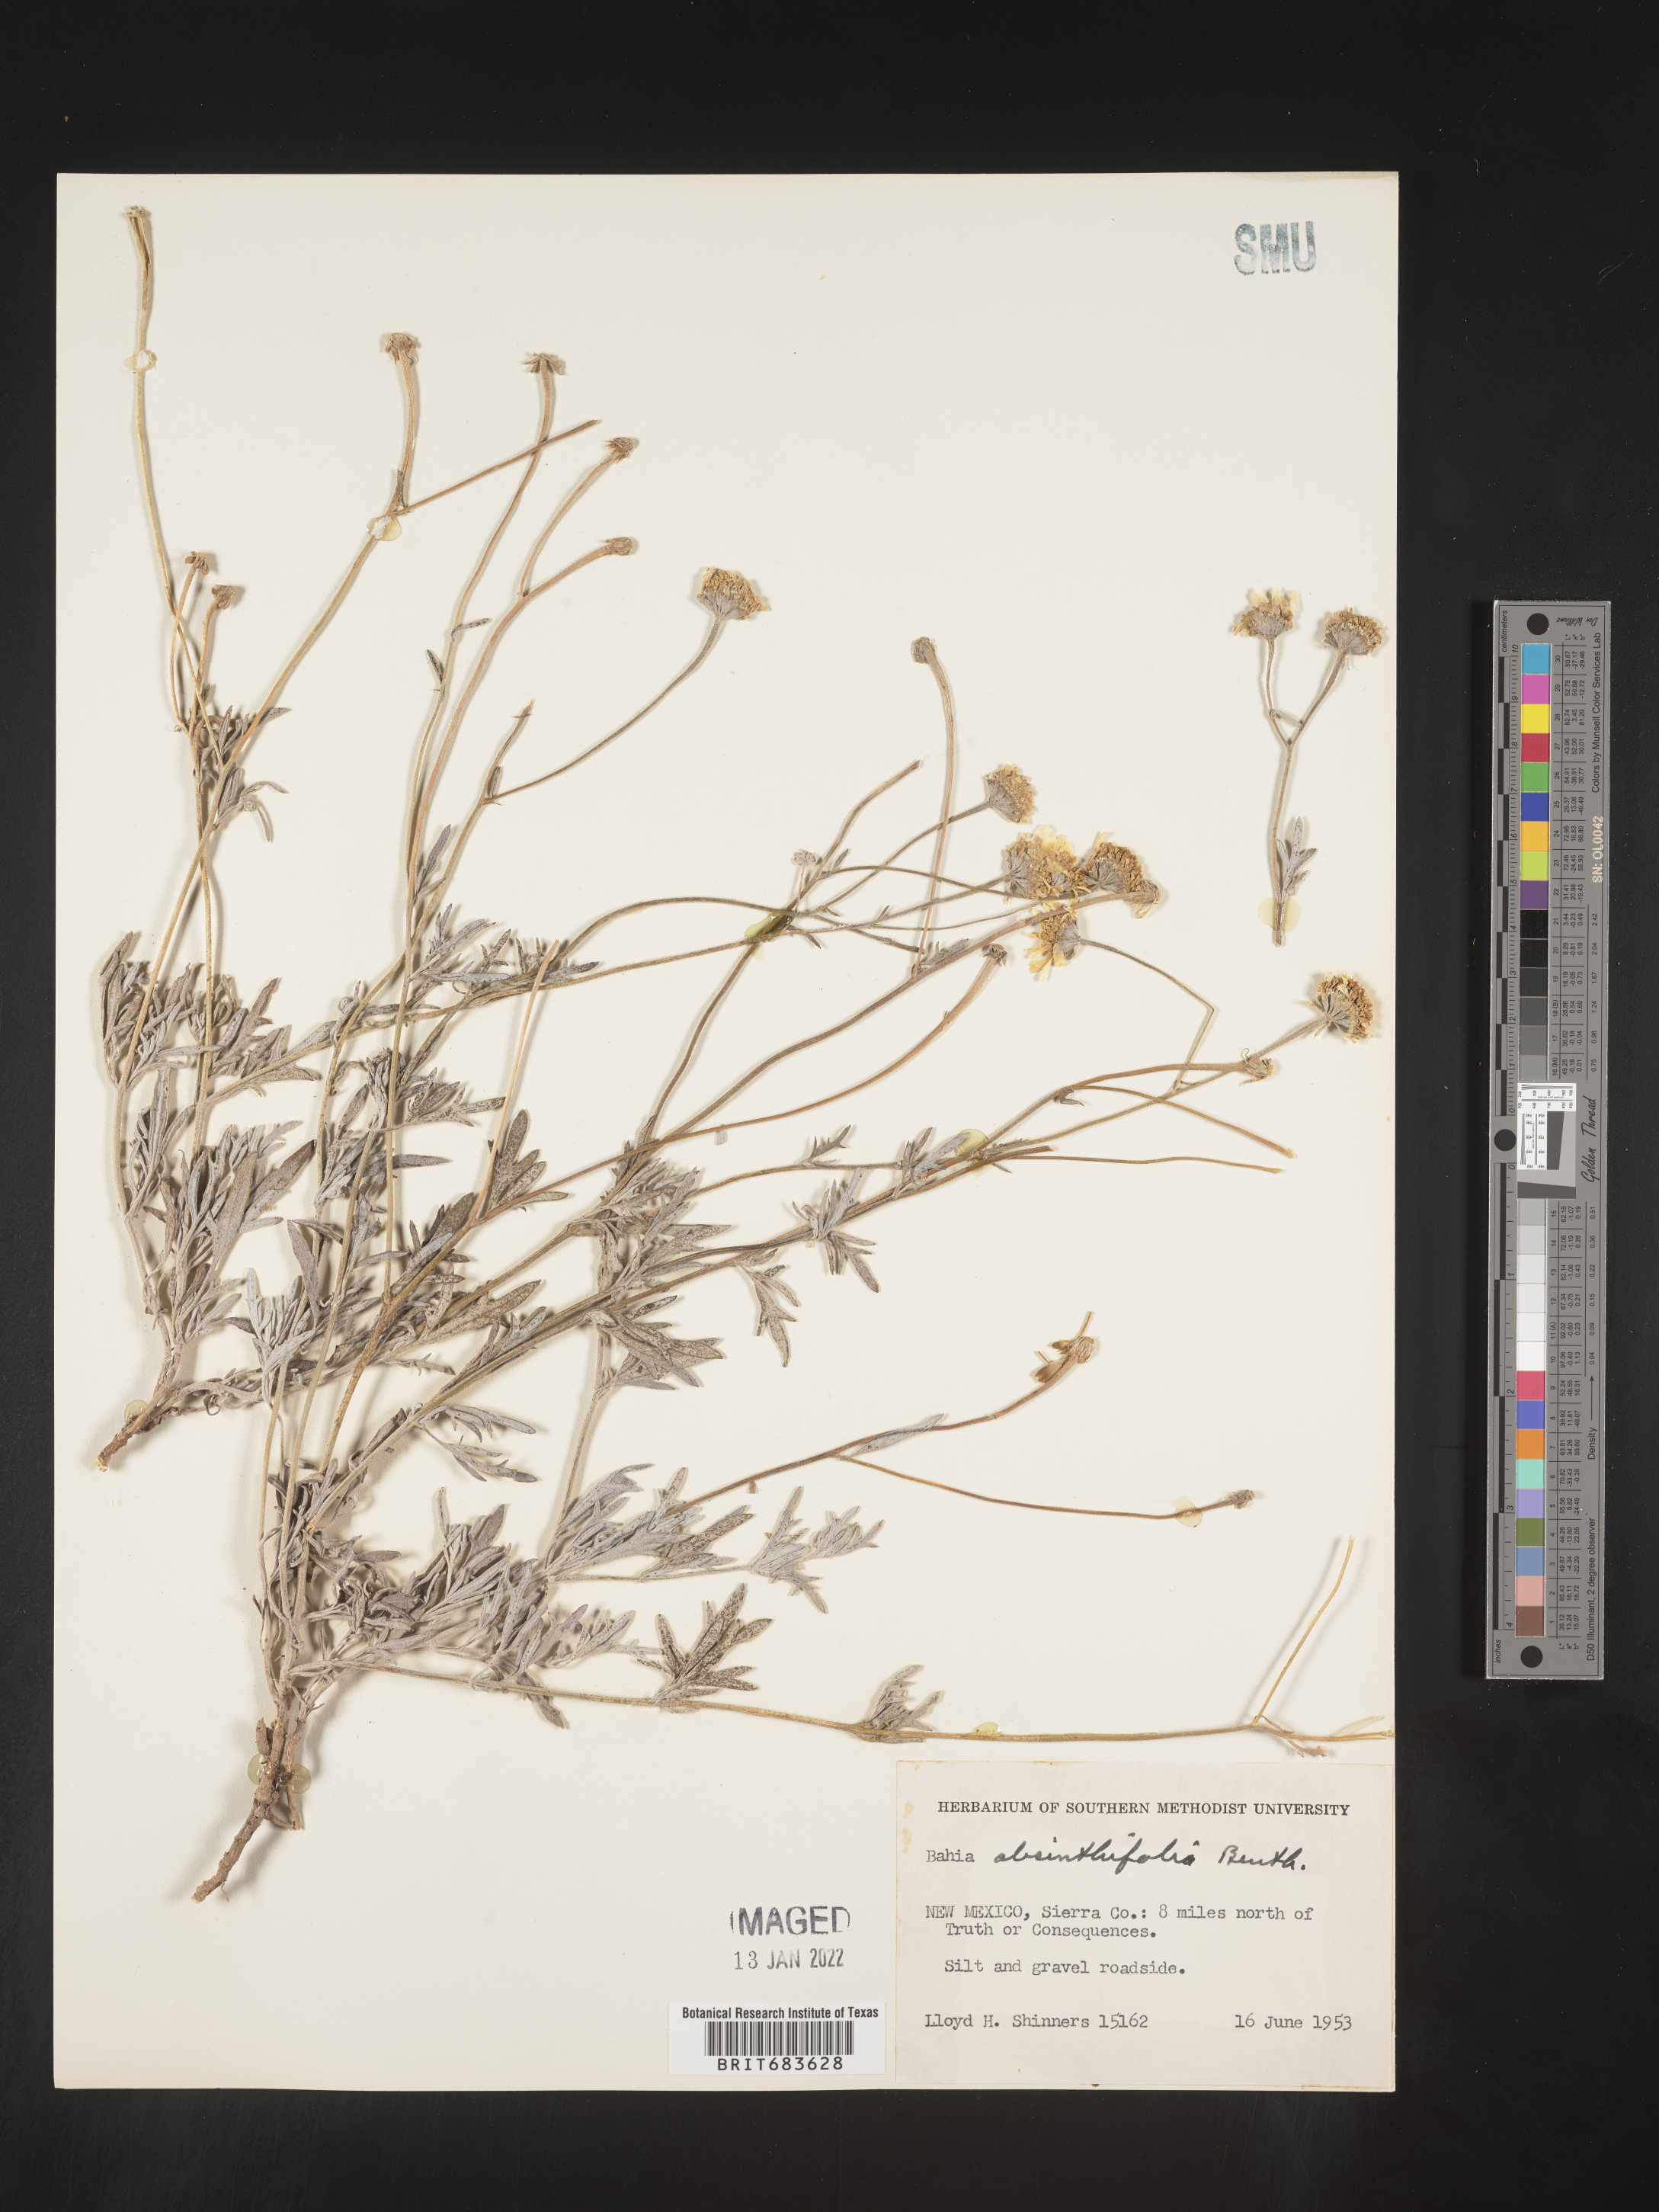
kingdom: Plantae
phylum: Tracheophyta
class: Magnoliopsida
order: Asterales
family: Asteraceae
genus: Picradeniopsis
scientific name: Picradeniopsis absinthifolia
